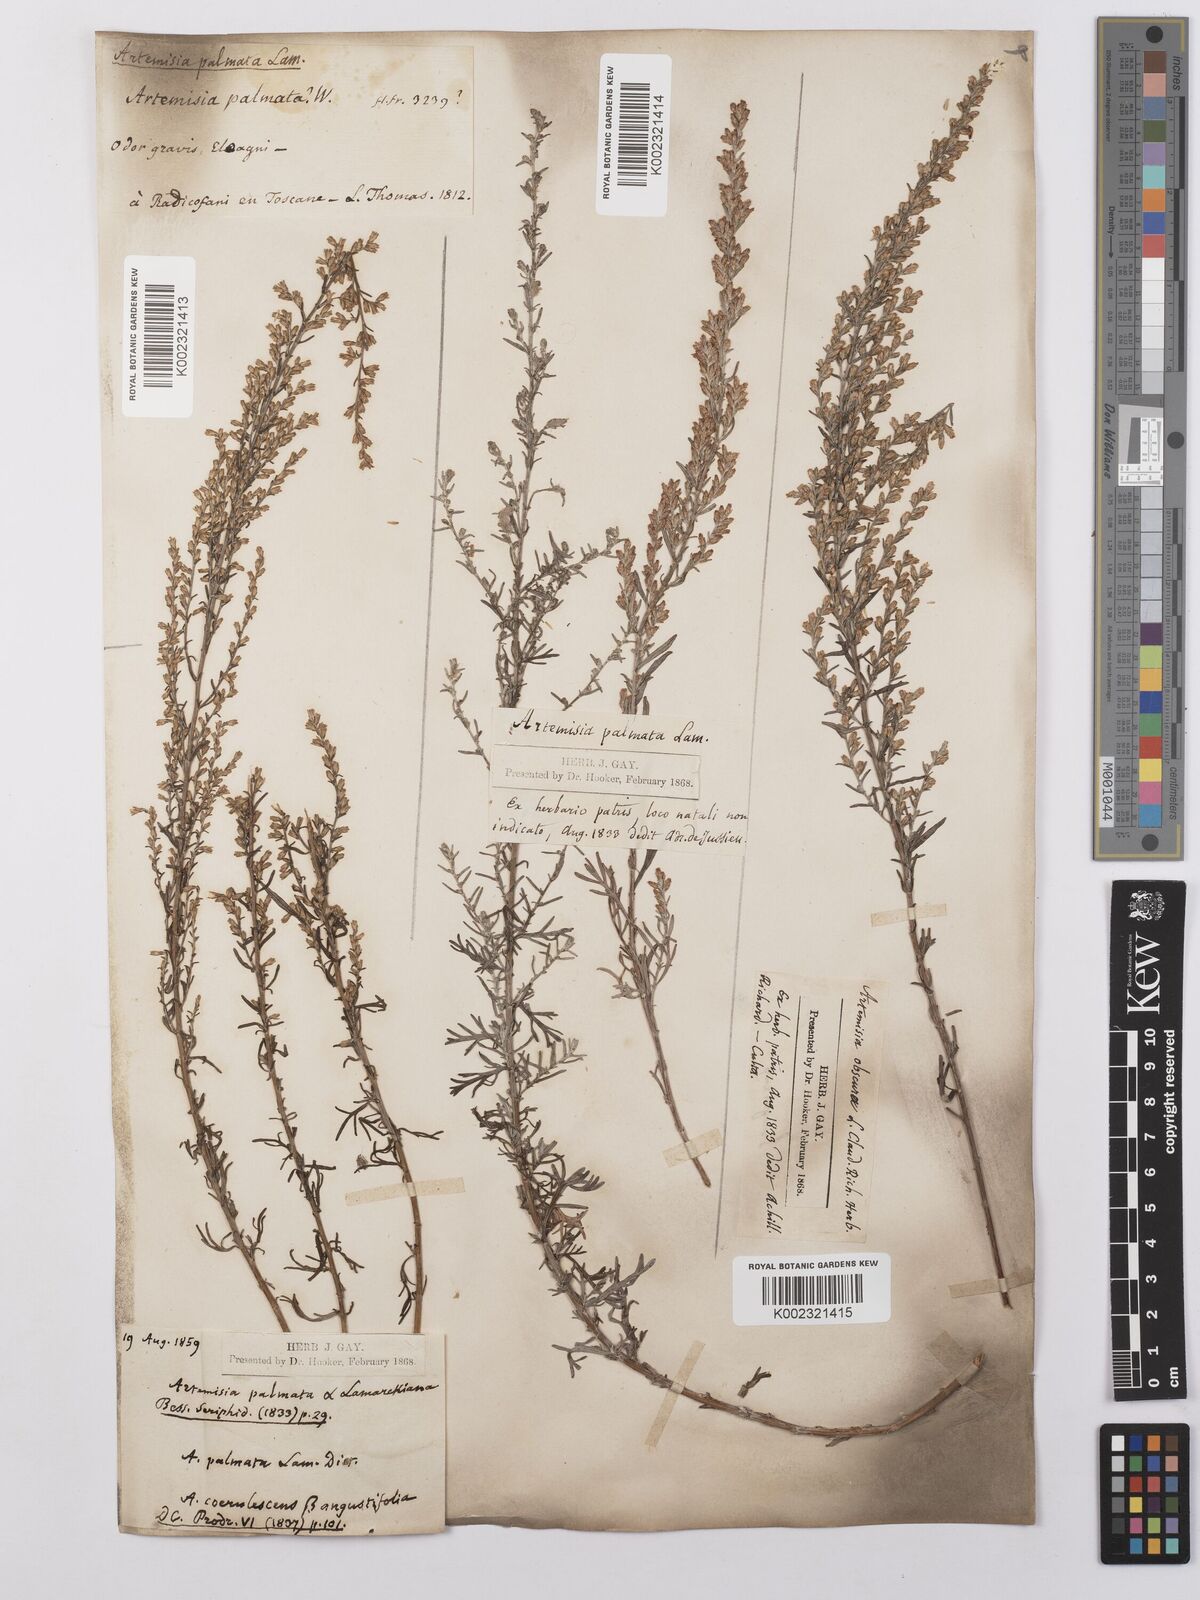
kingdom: Plantae
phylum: Tracheophyta
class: Magnoliopsida
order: Asterales
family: Asteraceae
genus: Artemisia
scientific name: Artemisia caerulescens
